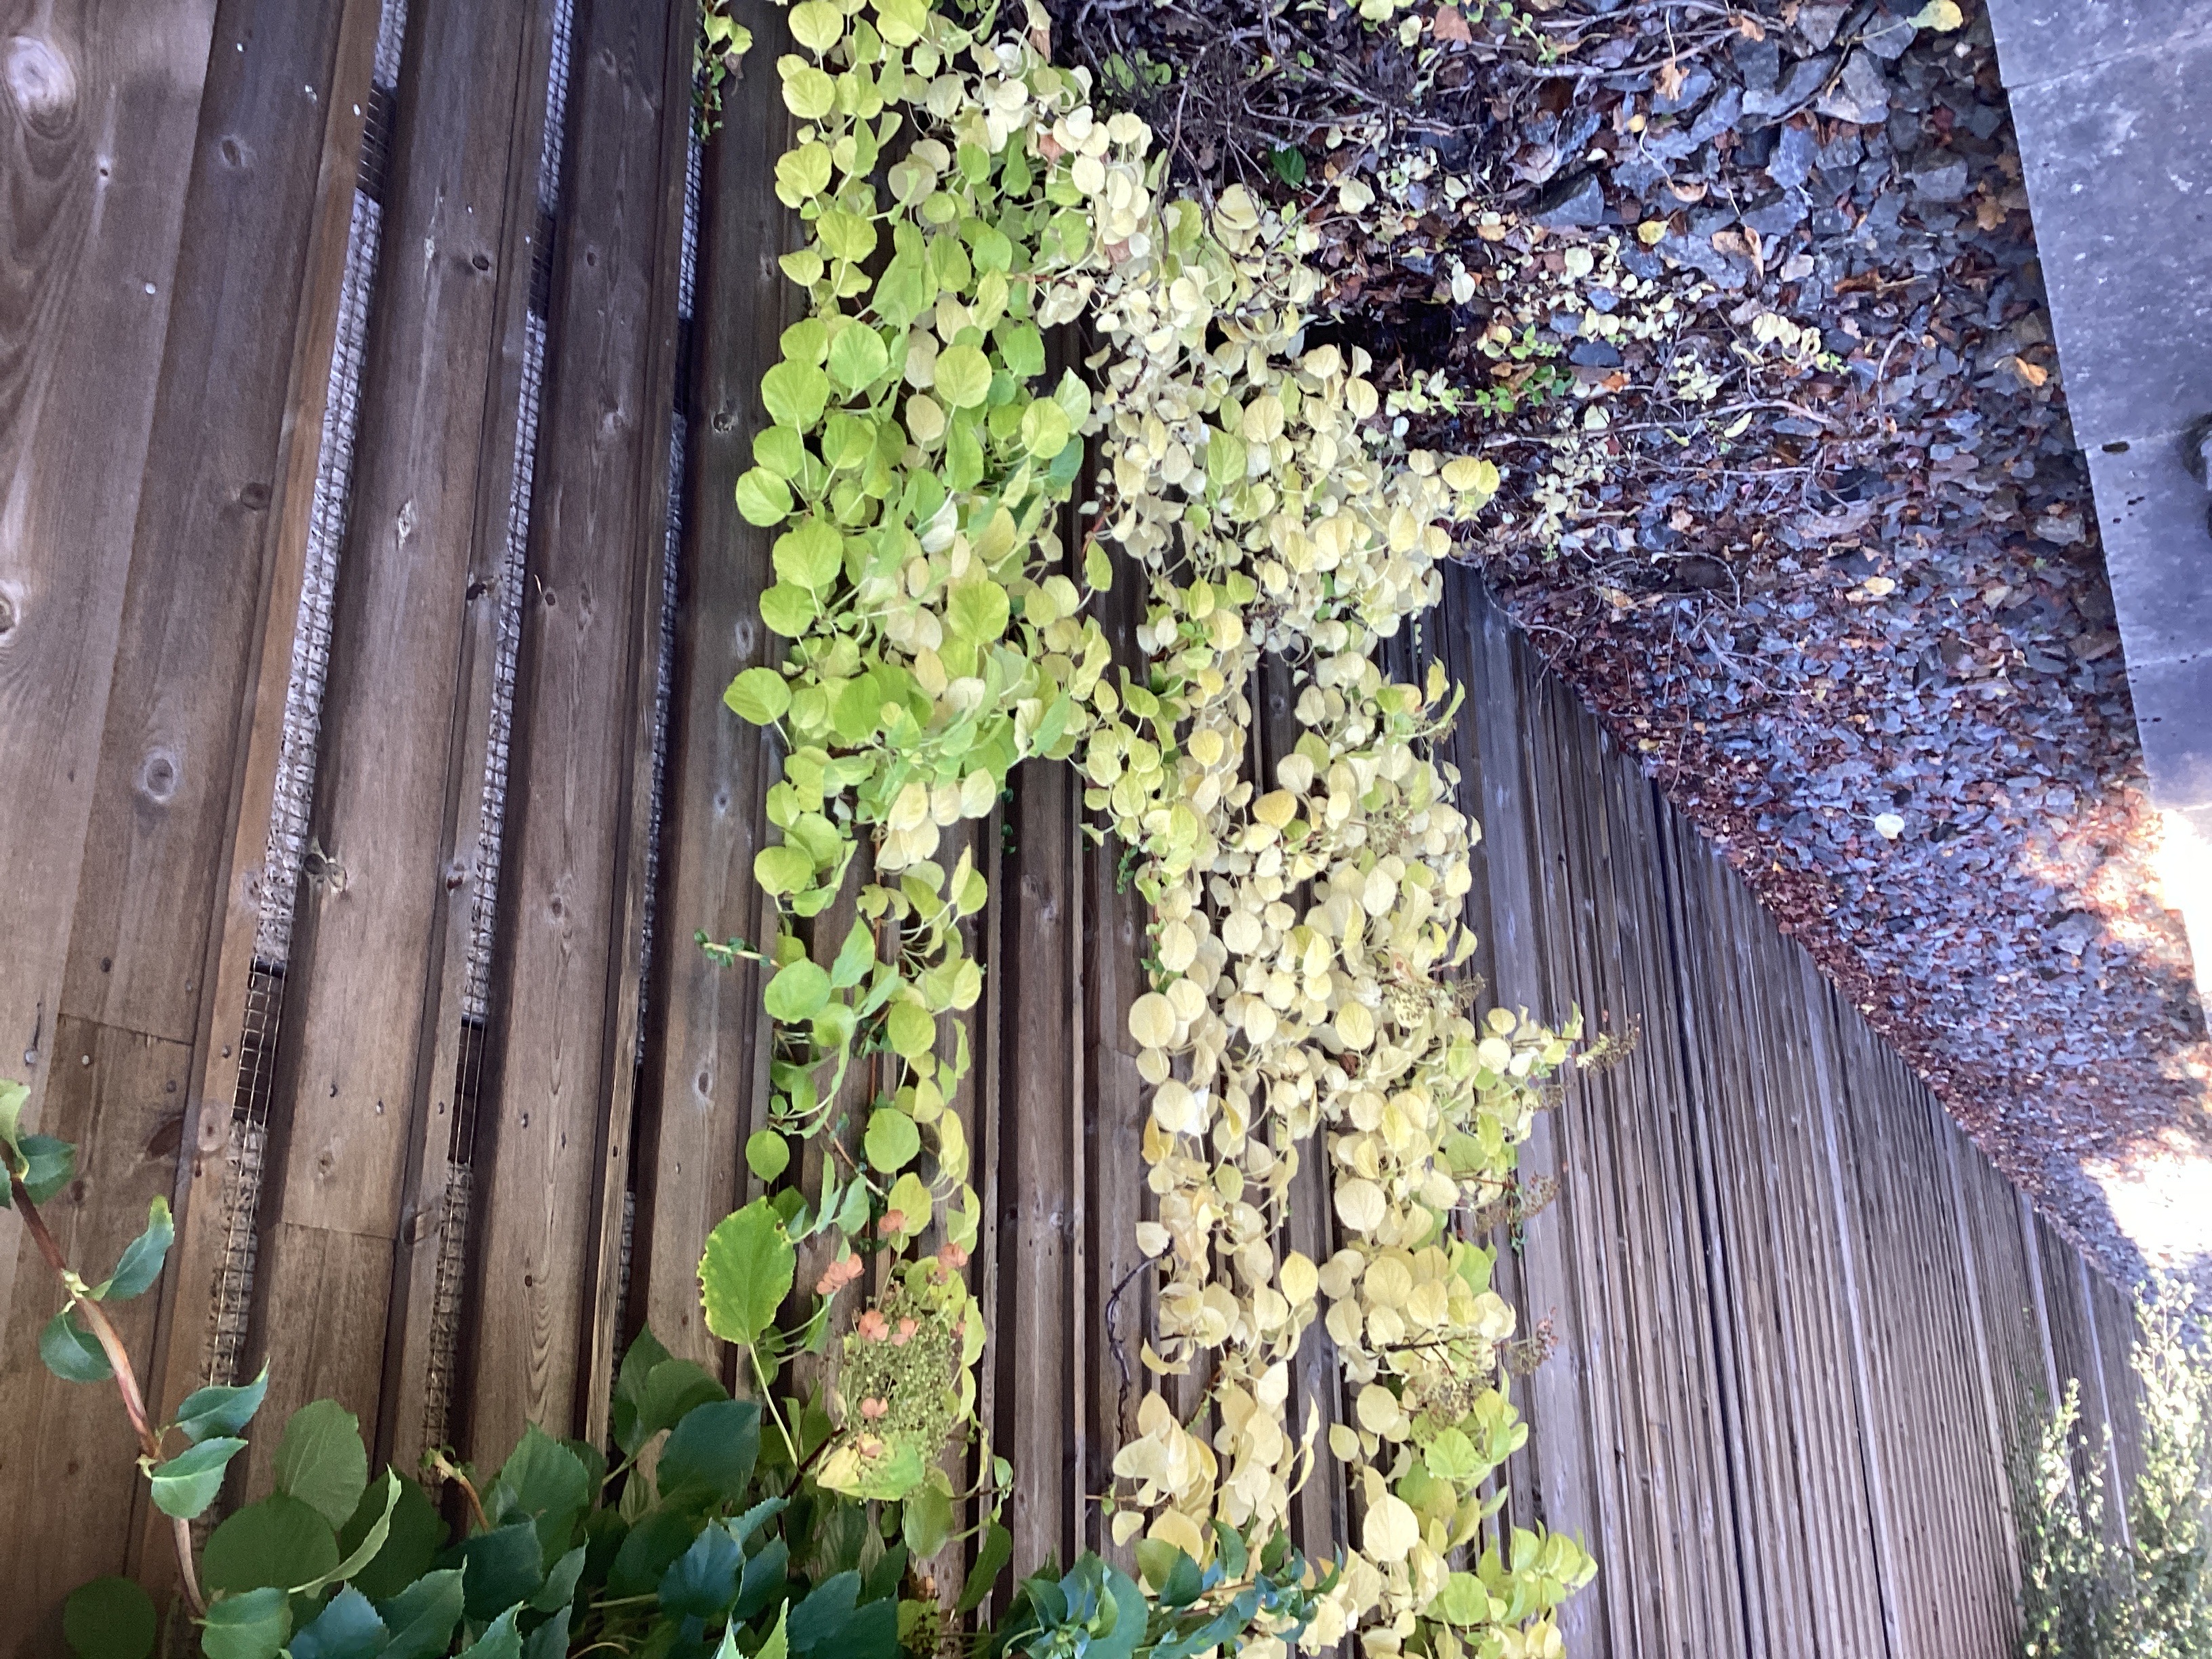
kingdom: Plantae
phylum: Tracheophyta
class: Magnoliopsida
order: Cornales
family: Hydrangeaceae
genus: Hydrangea
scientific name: Hydrangea petiolaris
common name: klatrehortensia
